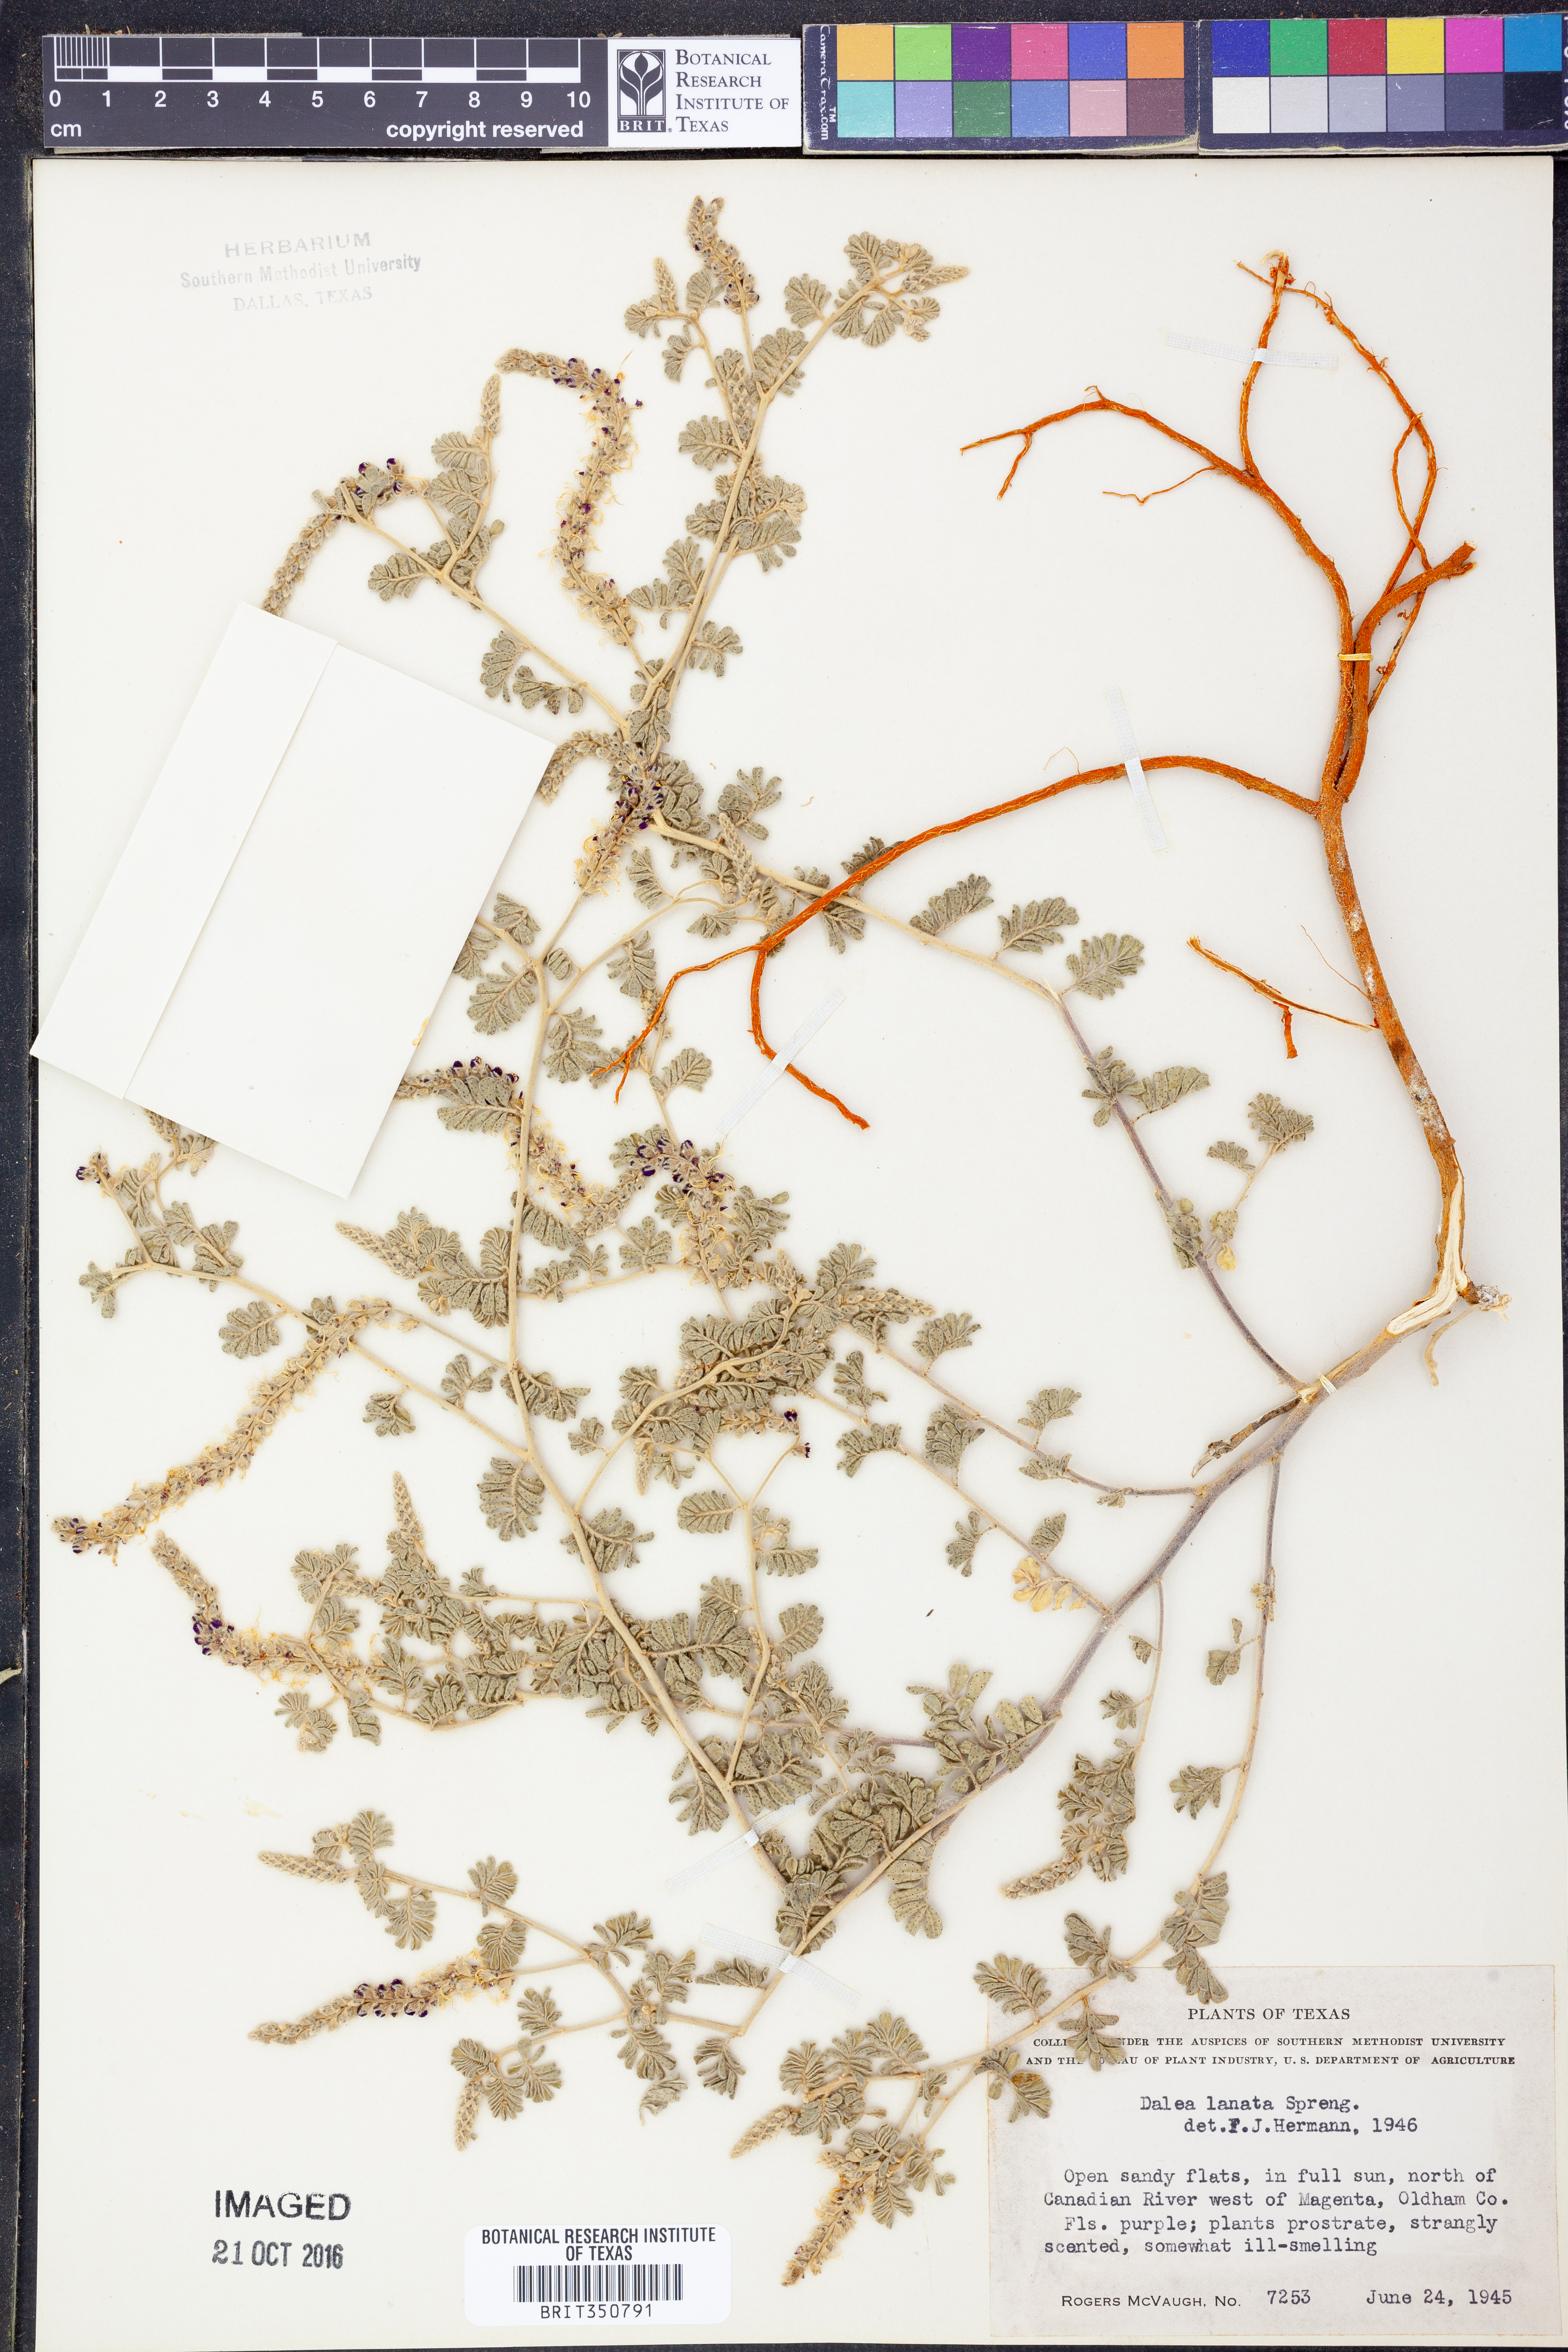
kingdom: Plantae
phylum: Tracheophyta
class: Magnoliopsida
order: Fabales
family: Fabaceae
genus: Dalea
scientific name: Dalea lanata
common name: Woolly dalea
